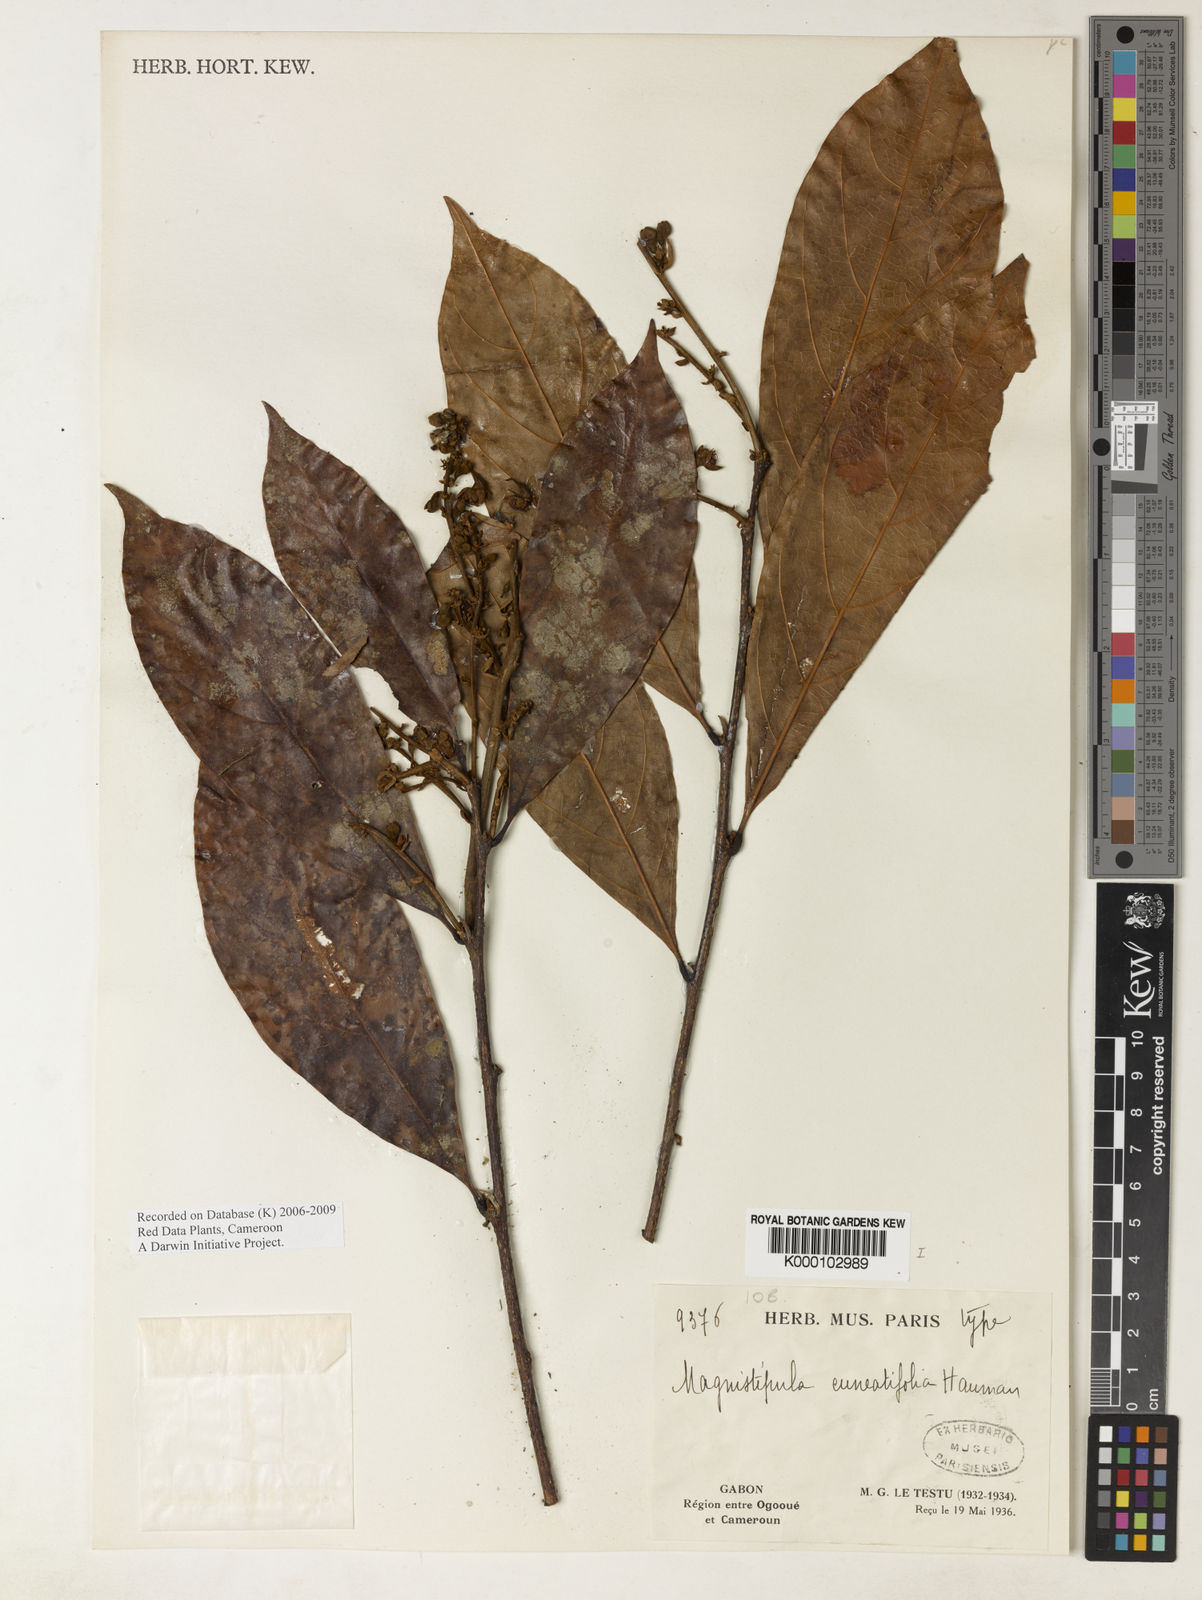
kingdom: Plantae
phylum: Tracheophyta
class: Magnoliopsida
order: Malpighiales
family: Chrysobalanaceae
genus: Magnistipula
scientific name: Magnistipula cuneatifolia
